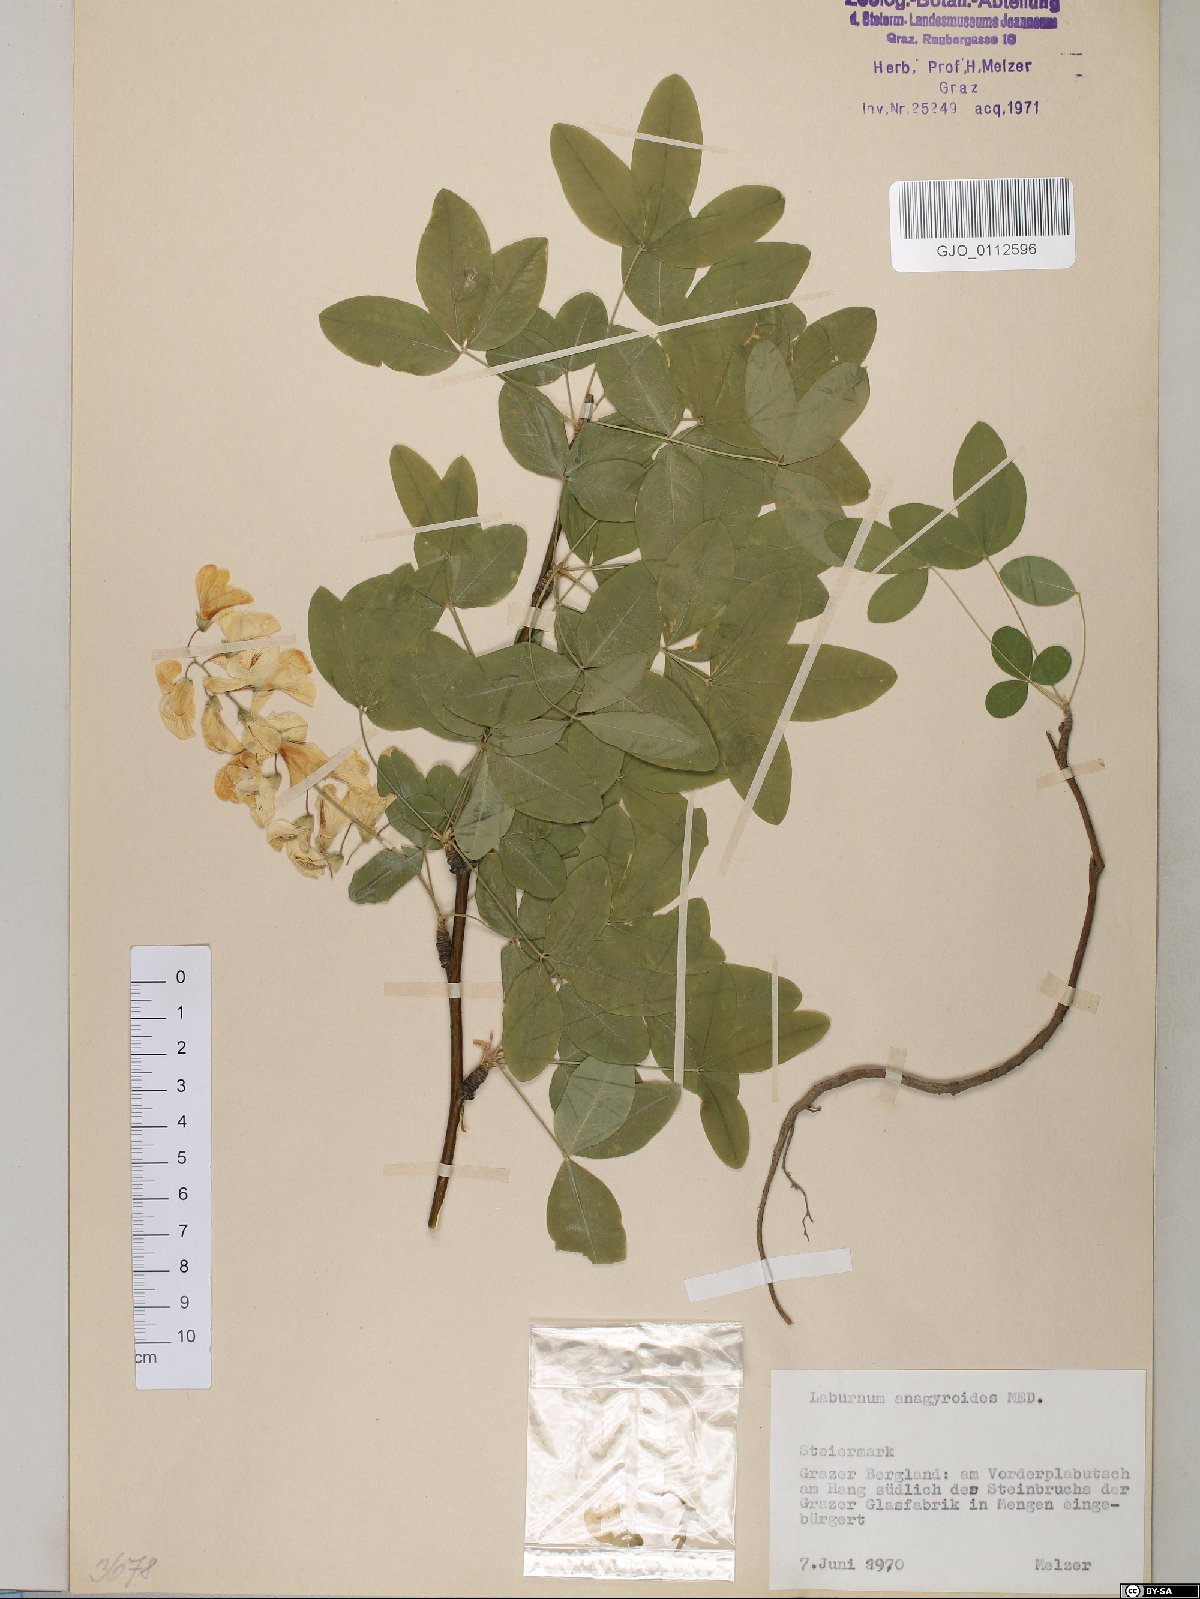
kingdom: Plantae
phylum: Tracheophyta
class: Magnoliopsida
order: Fabales
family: Fabaceae
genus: Laburnum
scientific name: Laburnum anagyroides
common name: Laburnum
